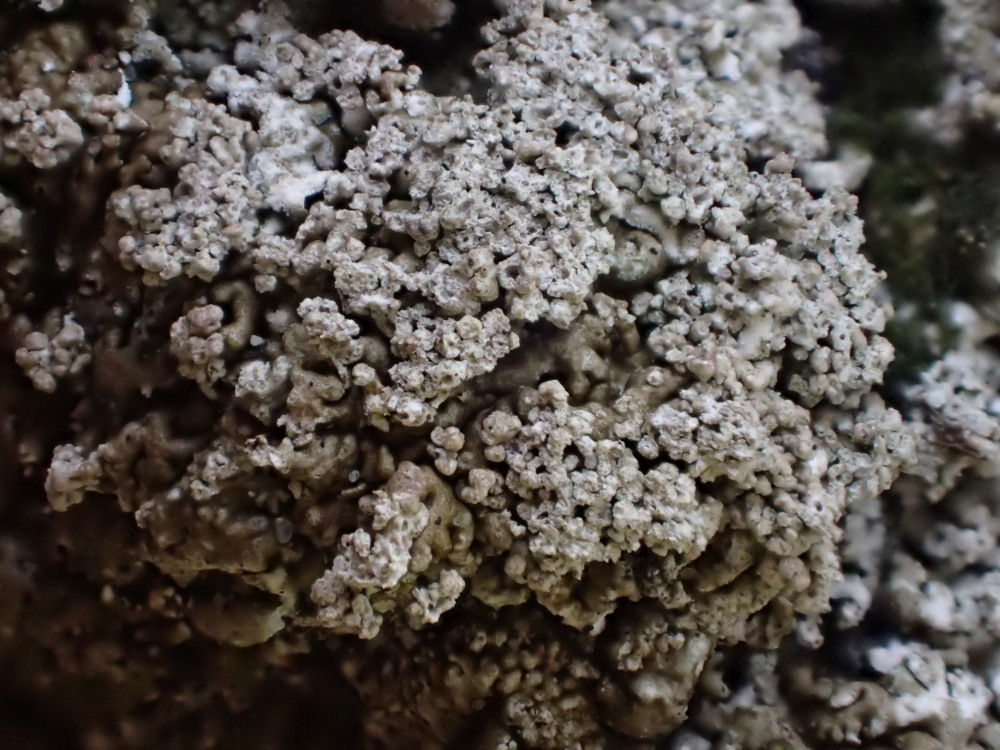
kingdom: Fungi
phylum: Ascomycota
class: Lecanoromycetes
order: Lecanorales
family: Parmeliaceae
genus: Xanthoparmelia
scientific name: Xanthoparmelia verruculifera
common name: småknoppet skållav
